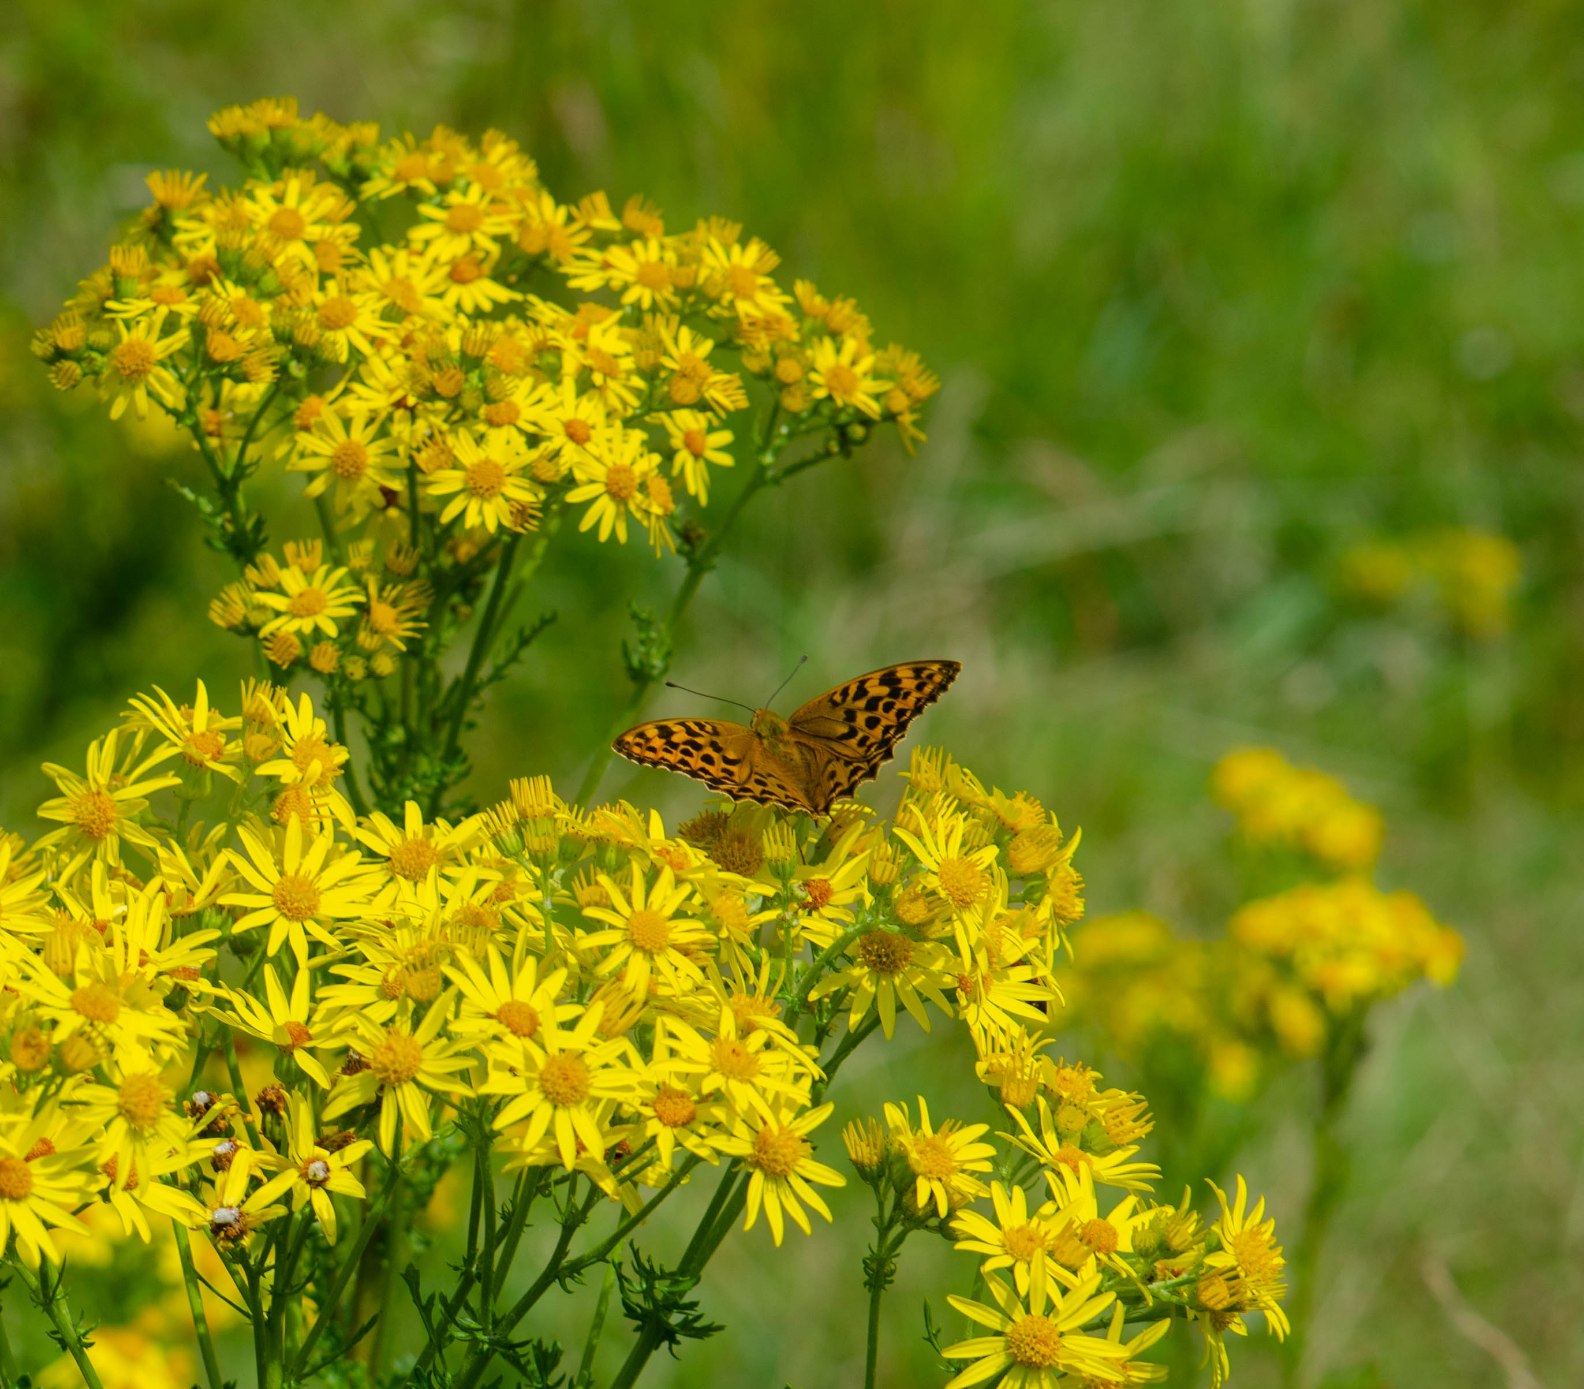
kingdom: Animalia
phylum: Arthropoda
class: Insecta
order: Lepidoptera
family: Nymphalidae
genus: Argynnis
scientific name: Argynnis paphia
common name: Kejserkåbe
